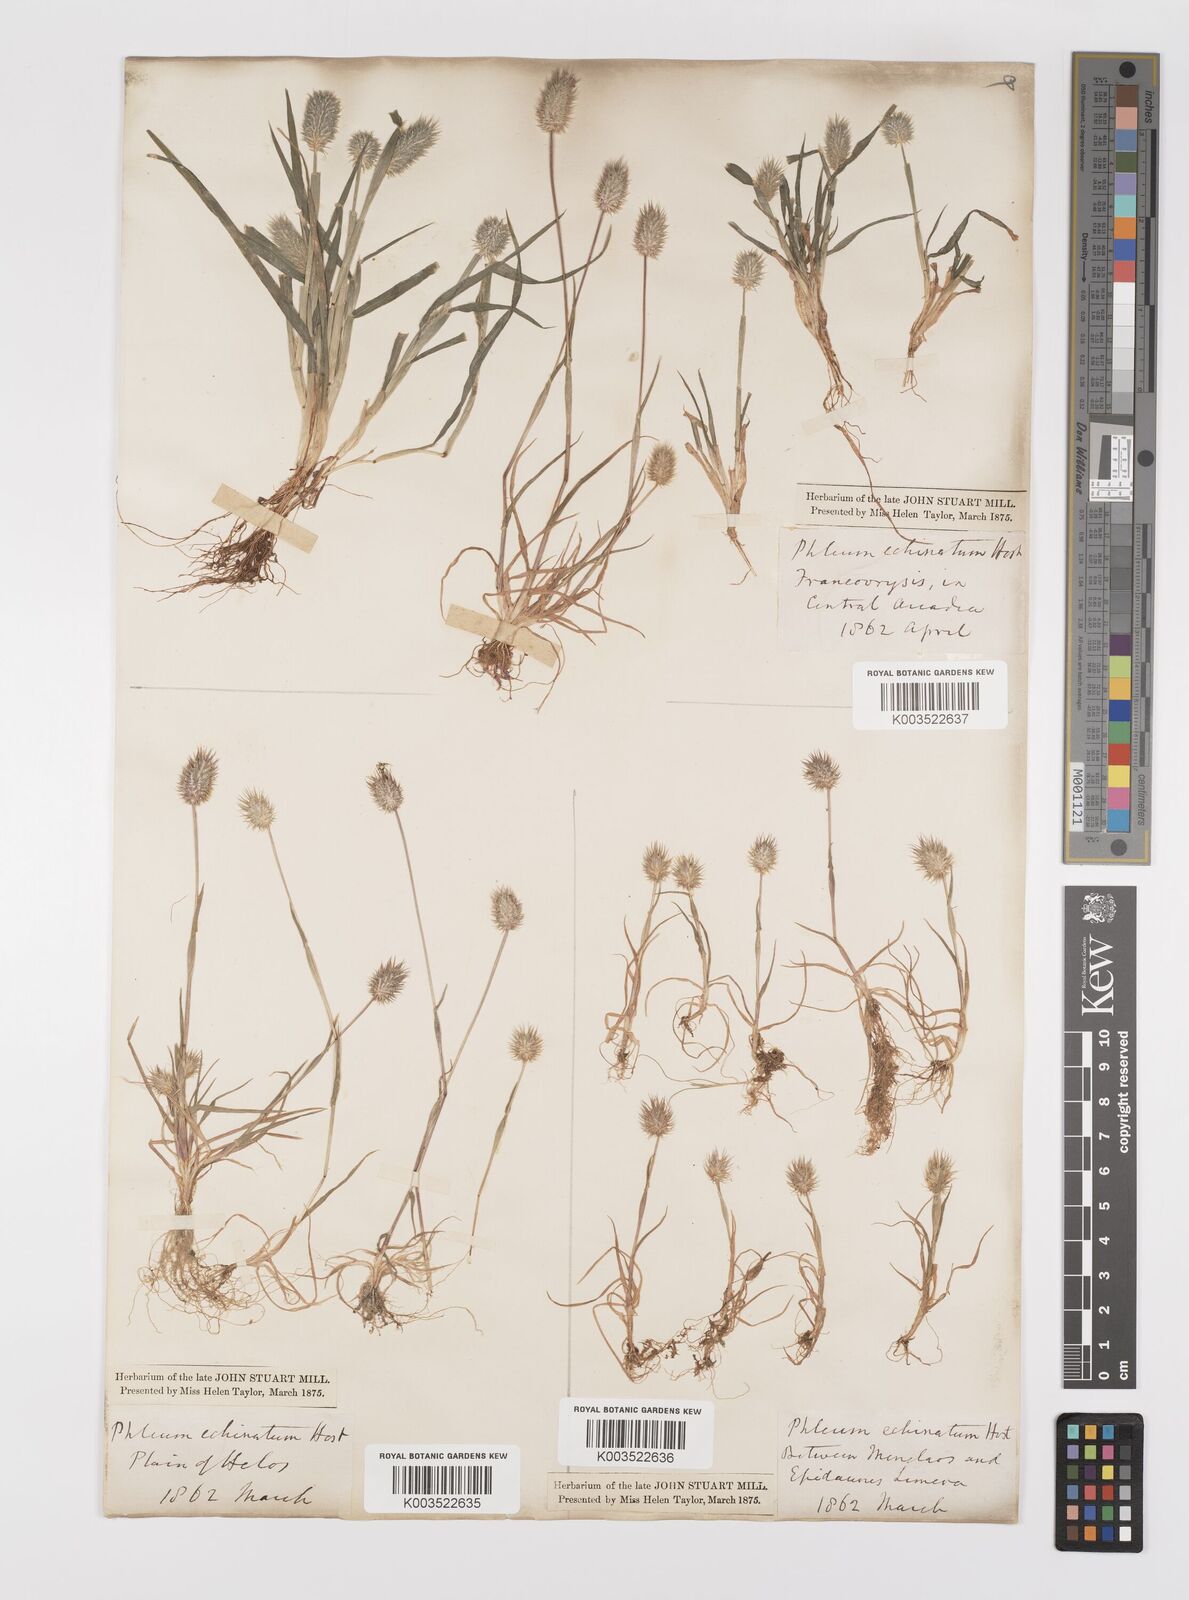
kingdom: Plantae
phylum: Tracheophyta
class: Liliopsida
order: Poales
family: Poaceae
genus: Phleum
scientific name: Phleum echinatum
